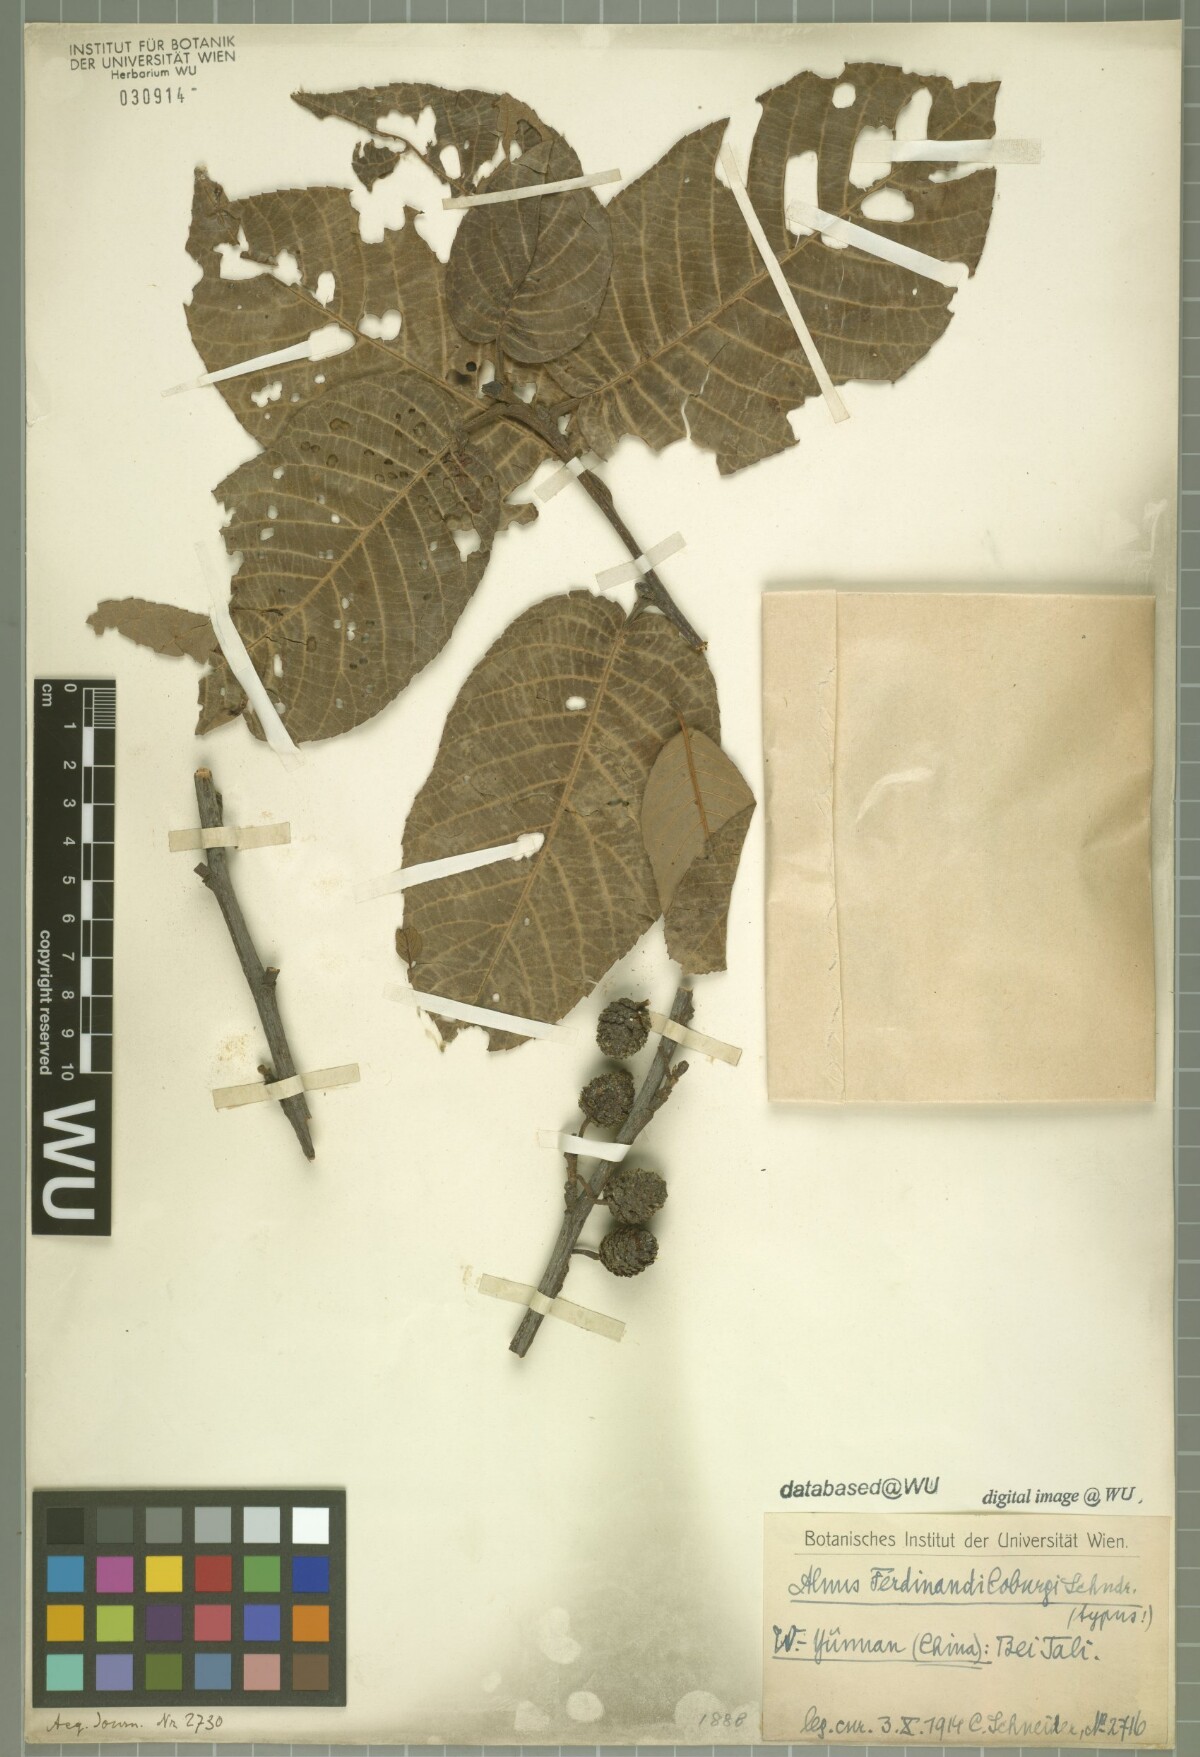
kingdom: Plantae
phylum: Tracheophyta
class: Magnoliopsida
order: Fagales
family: Betulaceae
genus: Alnus
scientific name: Alnus ferdinandi-coburgii
